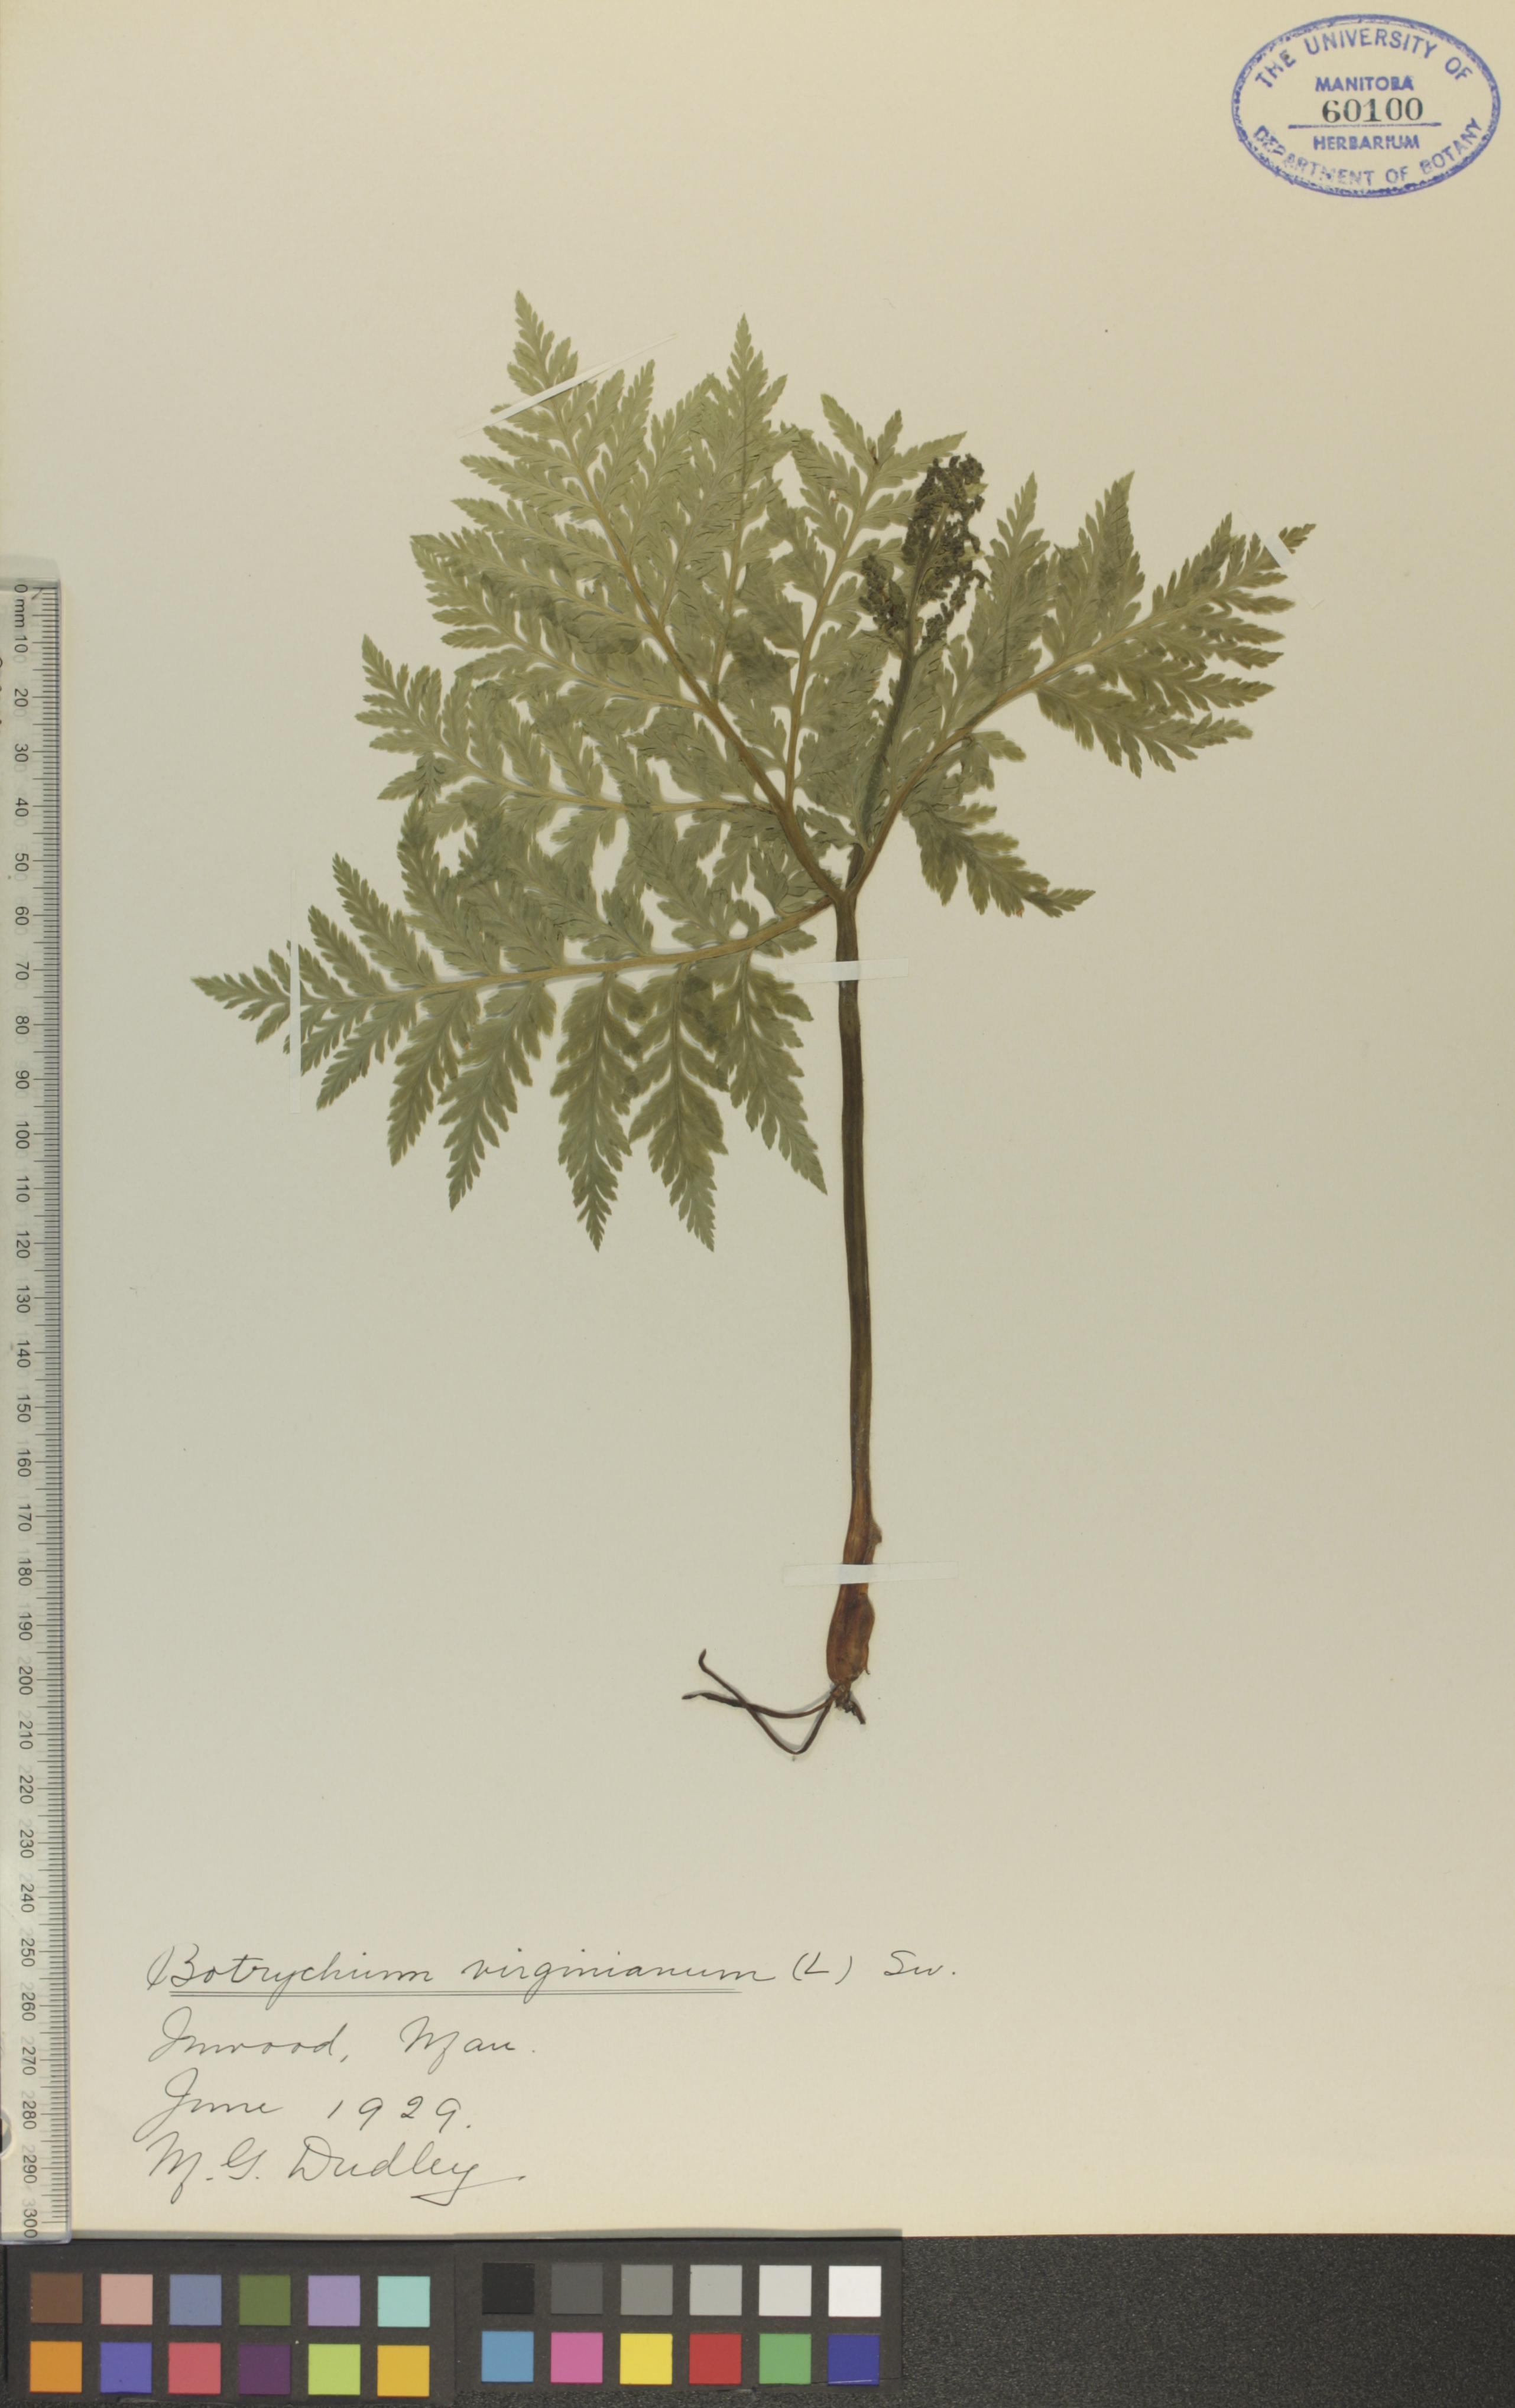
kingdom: Plantae
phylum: Tracheophyta
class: Polypodiopsida
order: Ophioglossales
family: Ophioglossaceae
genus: Botrypus
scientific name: Botrypus virginianus
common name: Common grapefern
